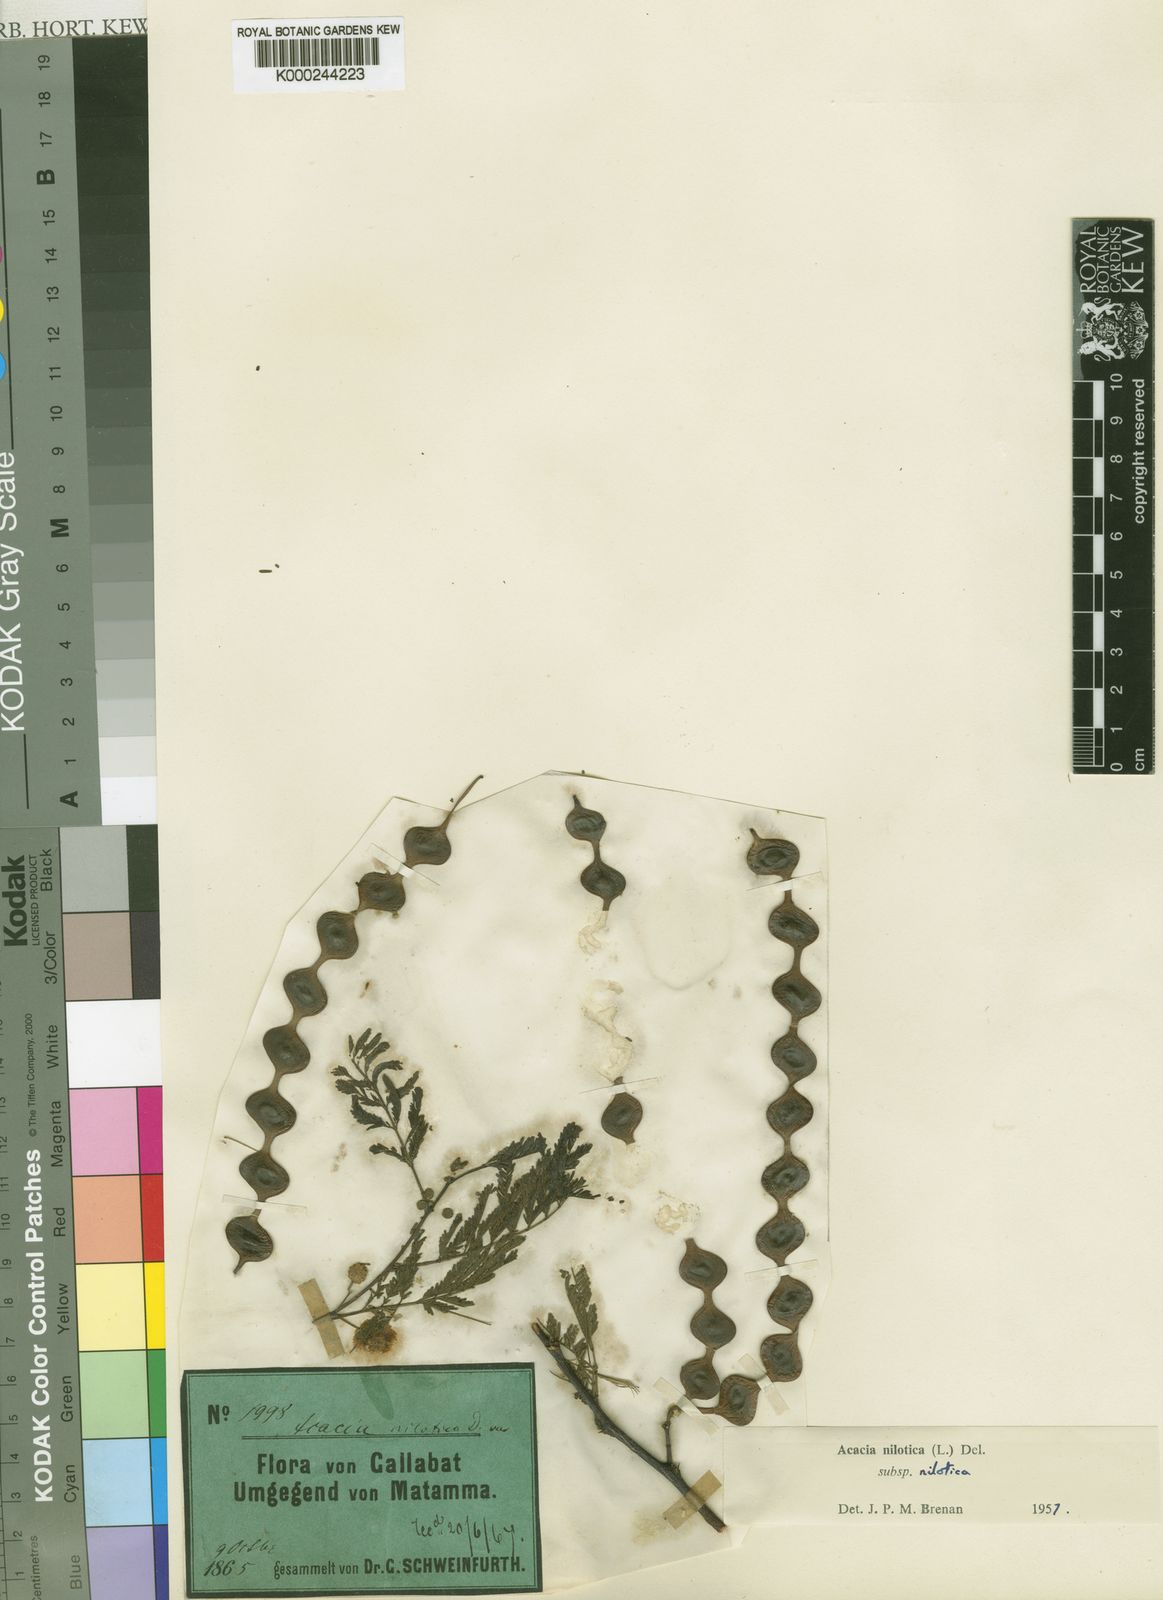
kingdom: Plantae
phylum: Tracheophyta
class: Magnoliopsida
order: Fabales
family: Fabaceae
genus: Vachellia
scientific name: Vachellia nilotica
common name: Arabic gumtree
